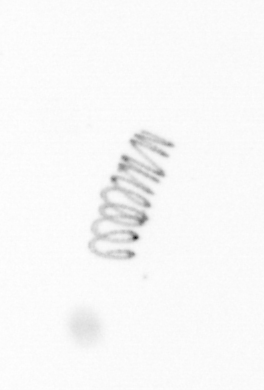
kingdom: Chromista
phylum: Ochrophyta
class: Bacillariophyceae
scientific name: Bacillariophyceae
